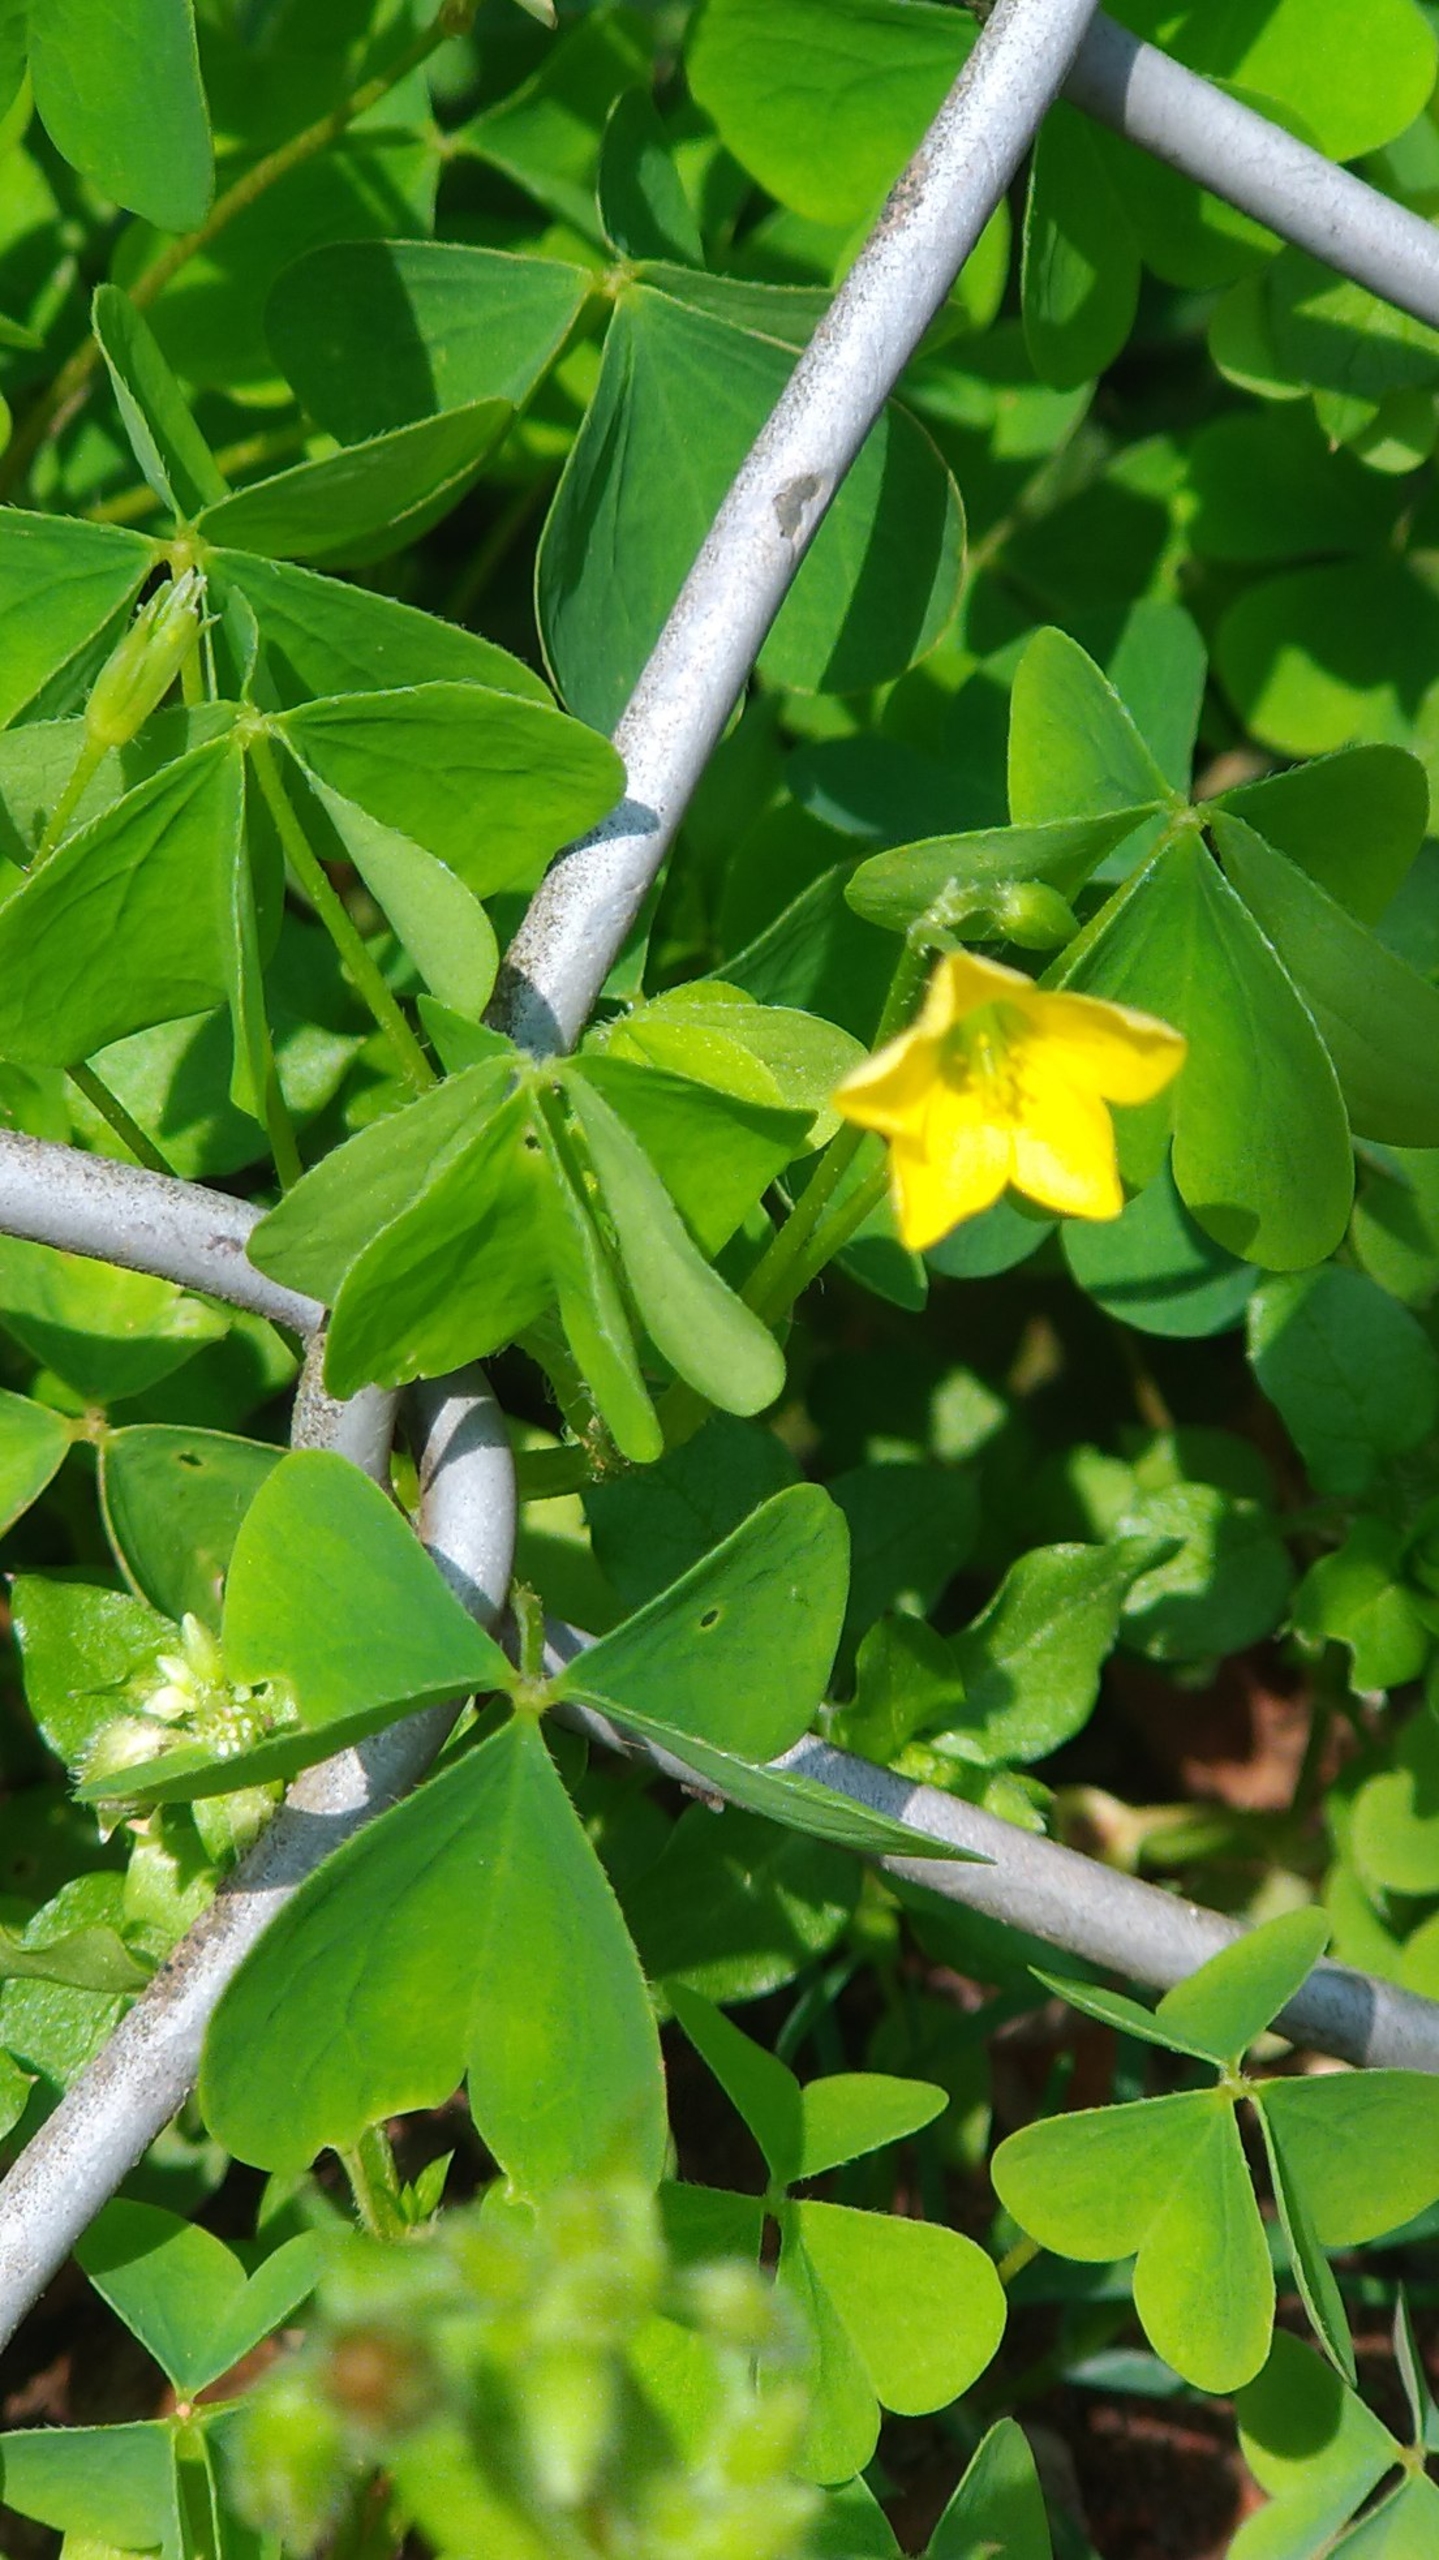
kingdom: Plantae
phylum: Tracheophyta
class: Magnoliopsida
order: Oxalidales
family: Oxalidaceae
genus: Oxalis
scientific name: Oxalis stricta
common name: Rank surkløver
